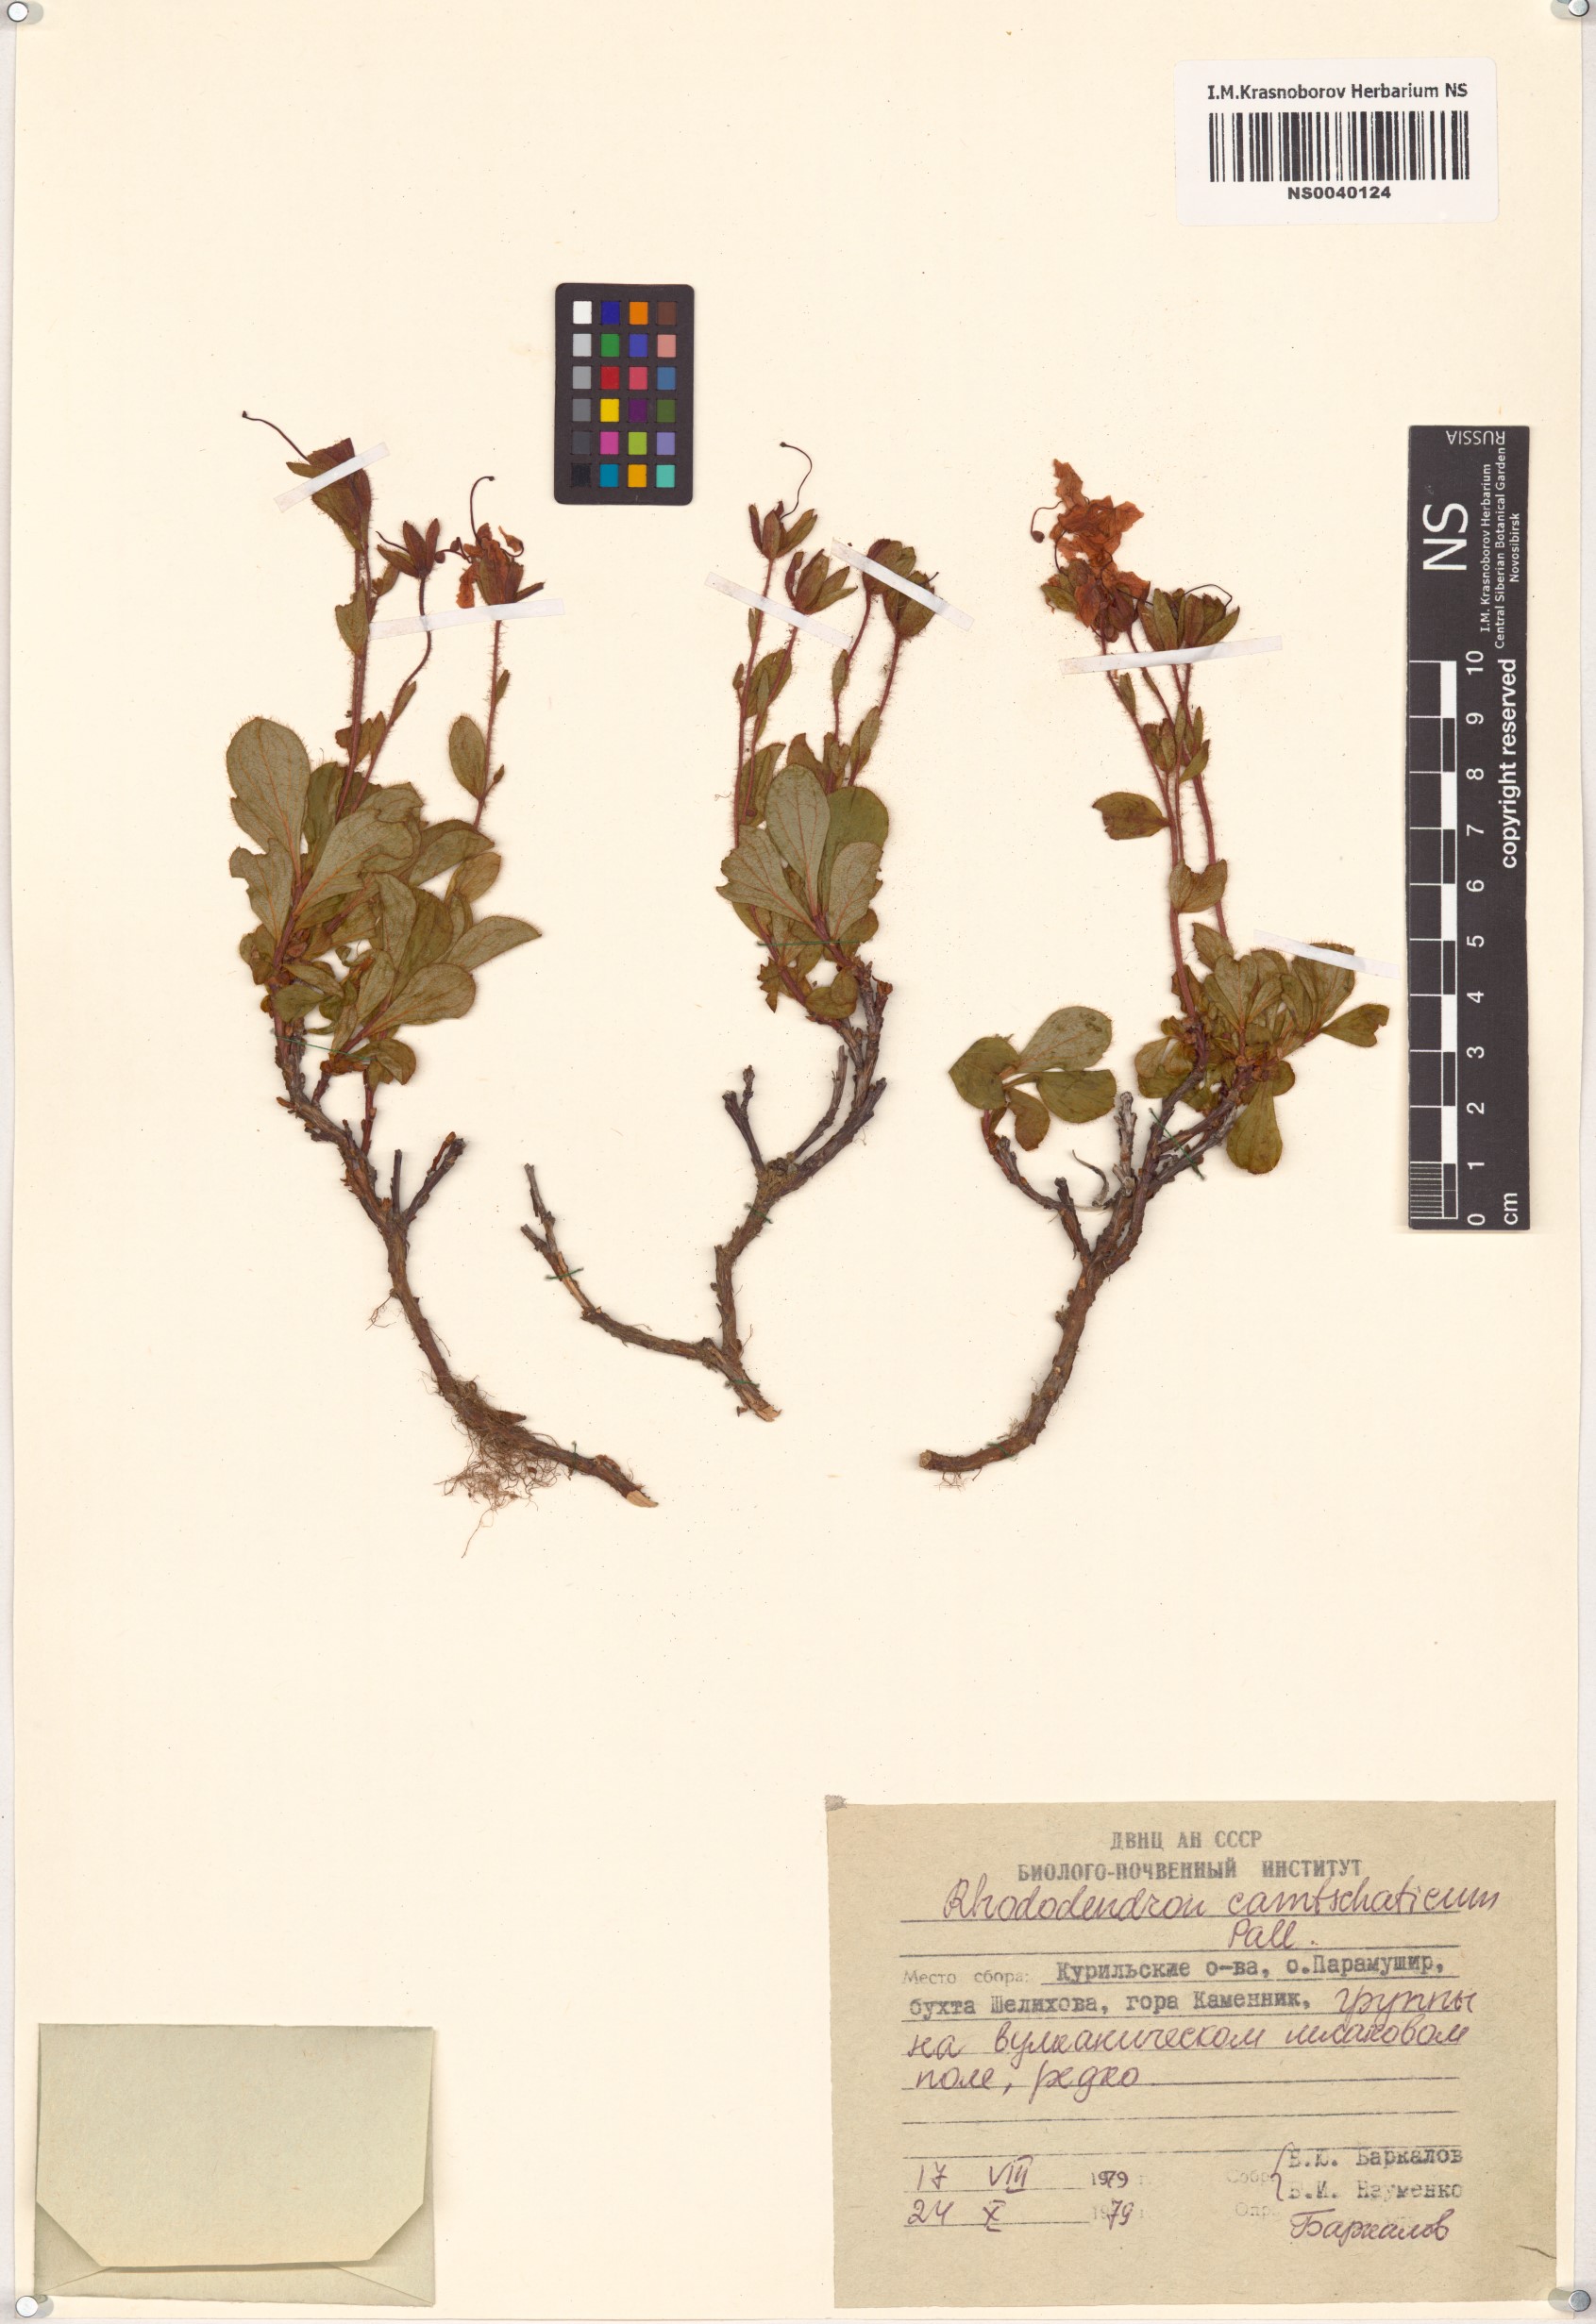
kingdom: Plantae
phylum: Tracheophyta
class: Magnoliopsida
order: Ericales
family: Ericaceae
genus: Rhododendron
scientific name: Rhododendron camtschaticum
